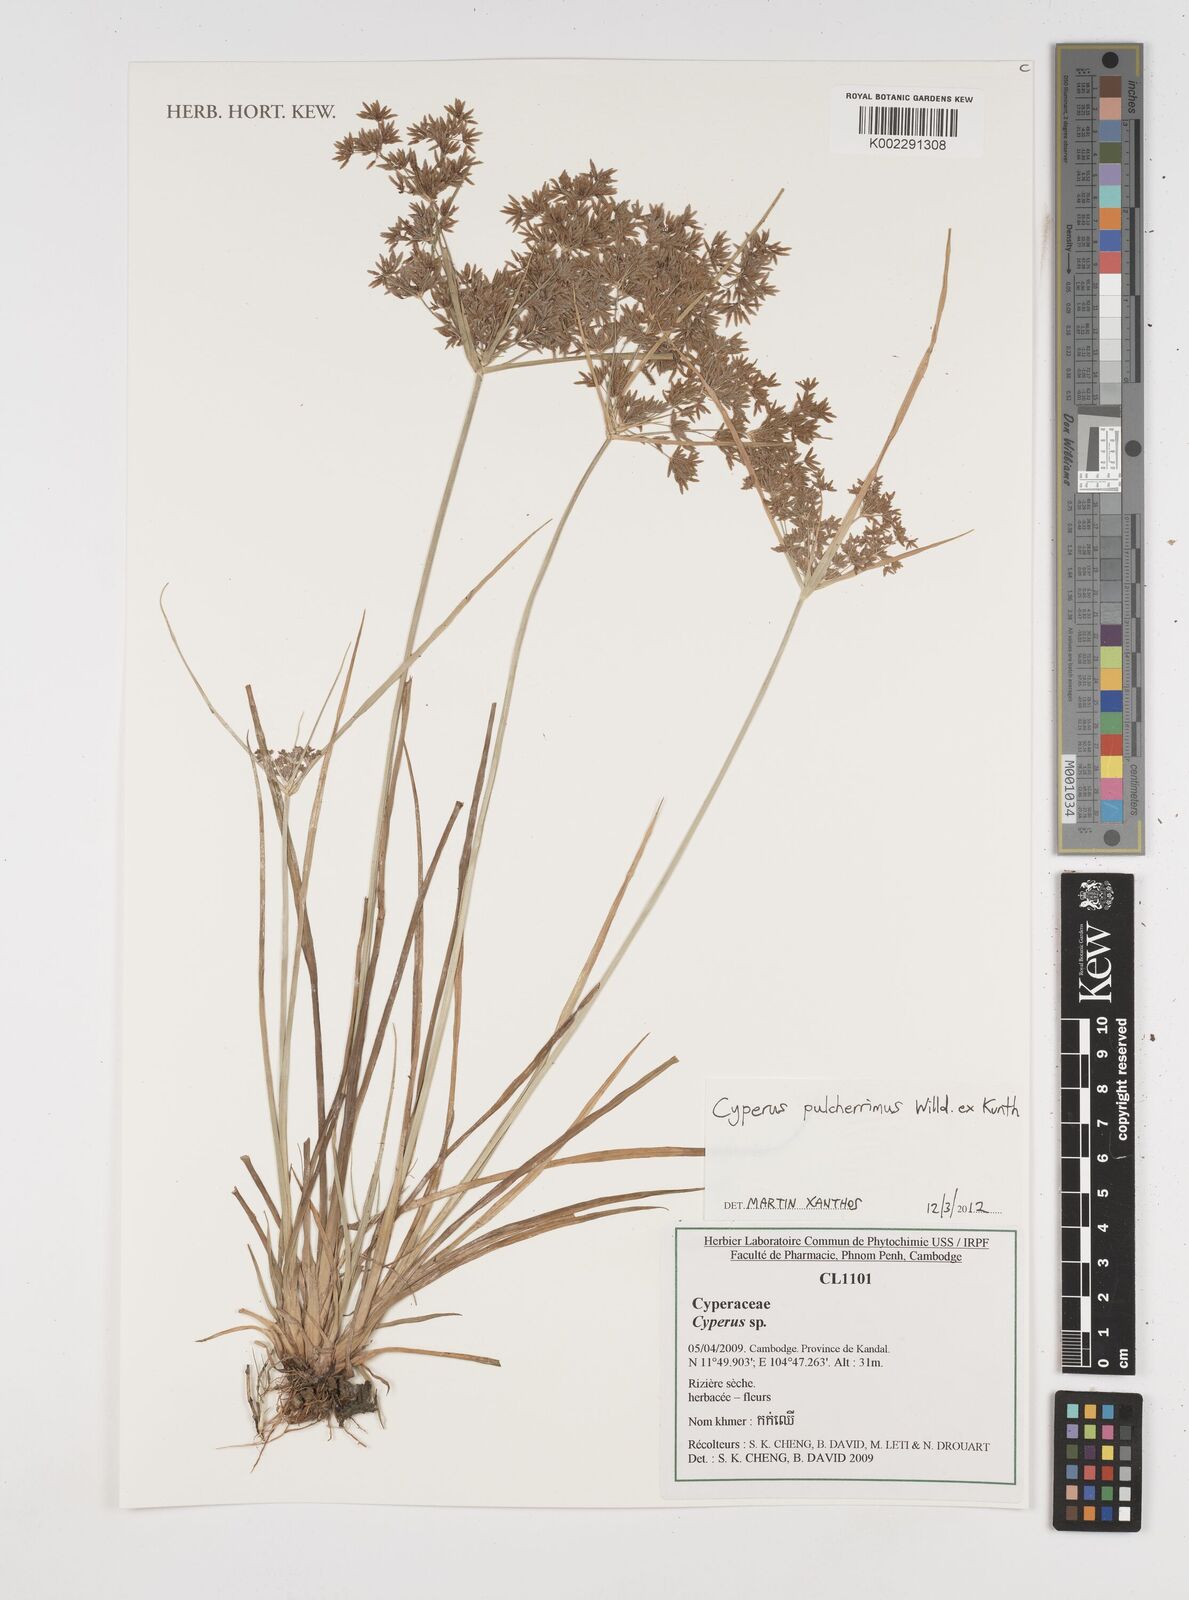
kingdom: Plantae
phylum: Tracheophyta
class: Liliopsida
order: Poales
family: Cyperaceae
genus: Cyperus
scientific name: Cyperus pulcherrimus
